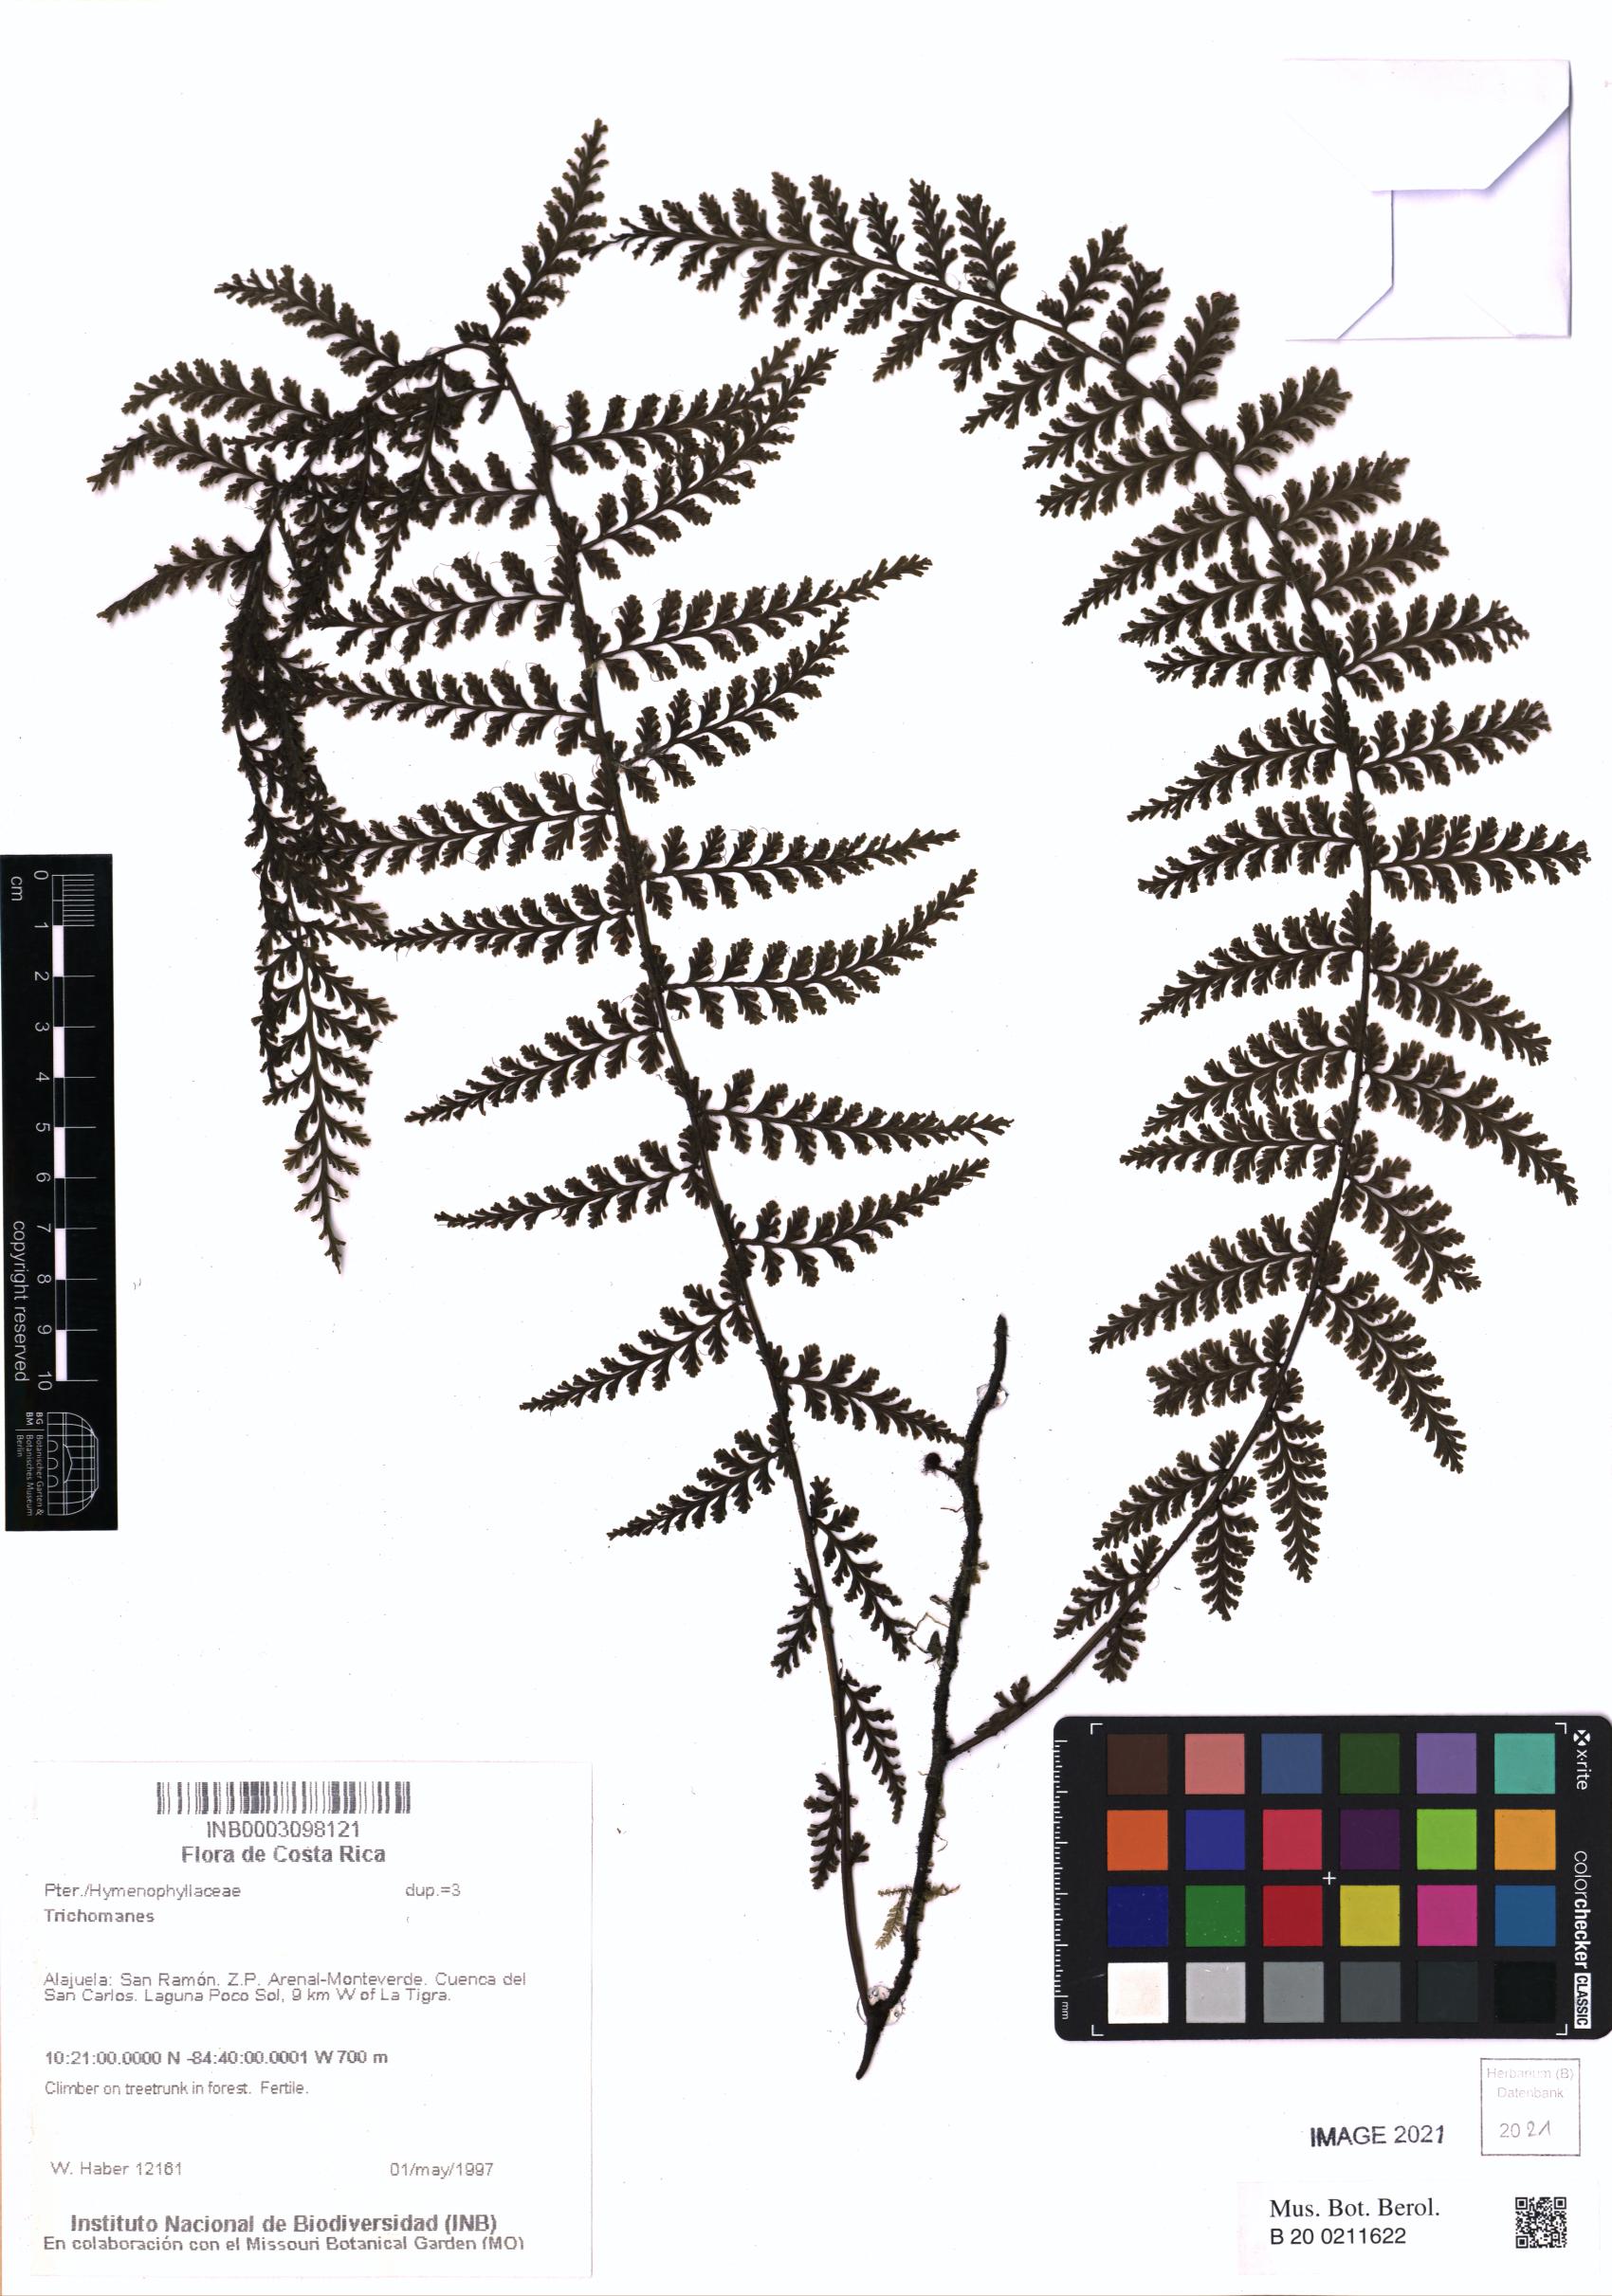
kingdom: Plantae
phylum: Tracheophyta
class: Polypodiopsida
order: Hymenophyllales
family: Hymenophyllaceae
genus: Trichomanes
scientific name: Trichomanes
